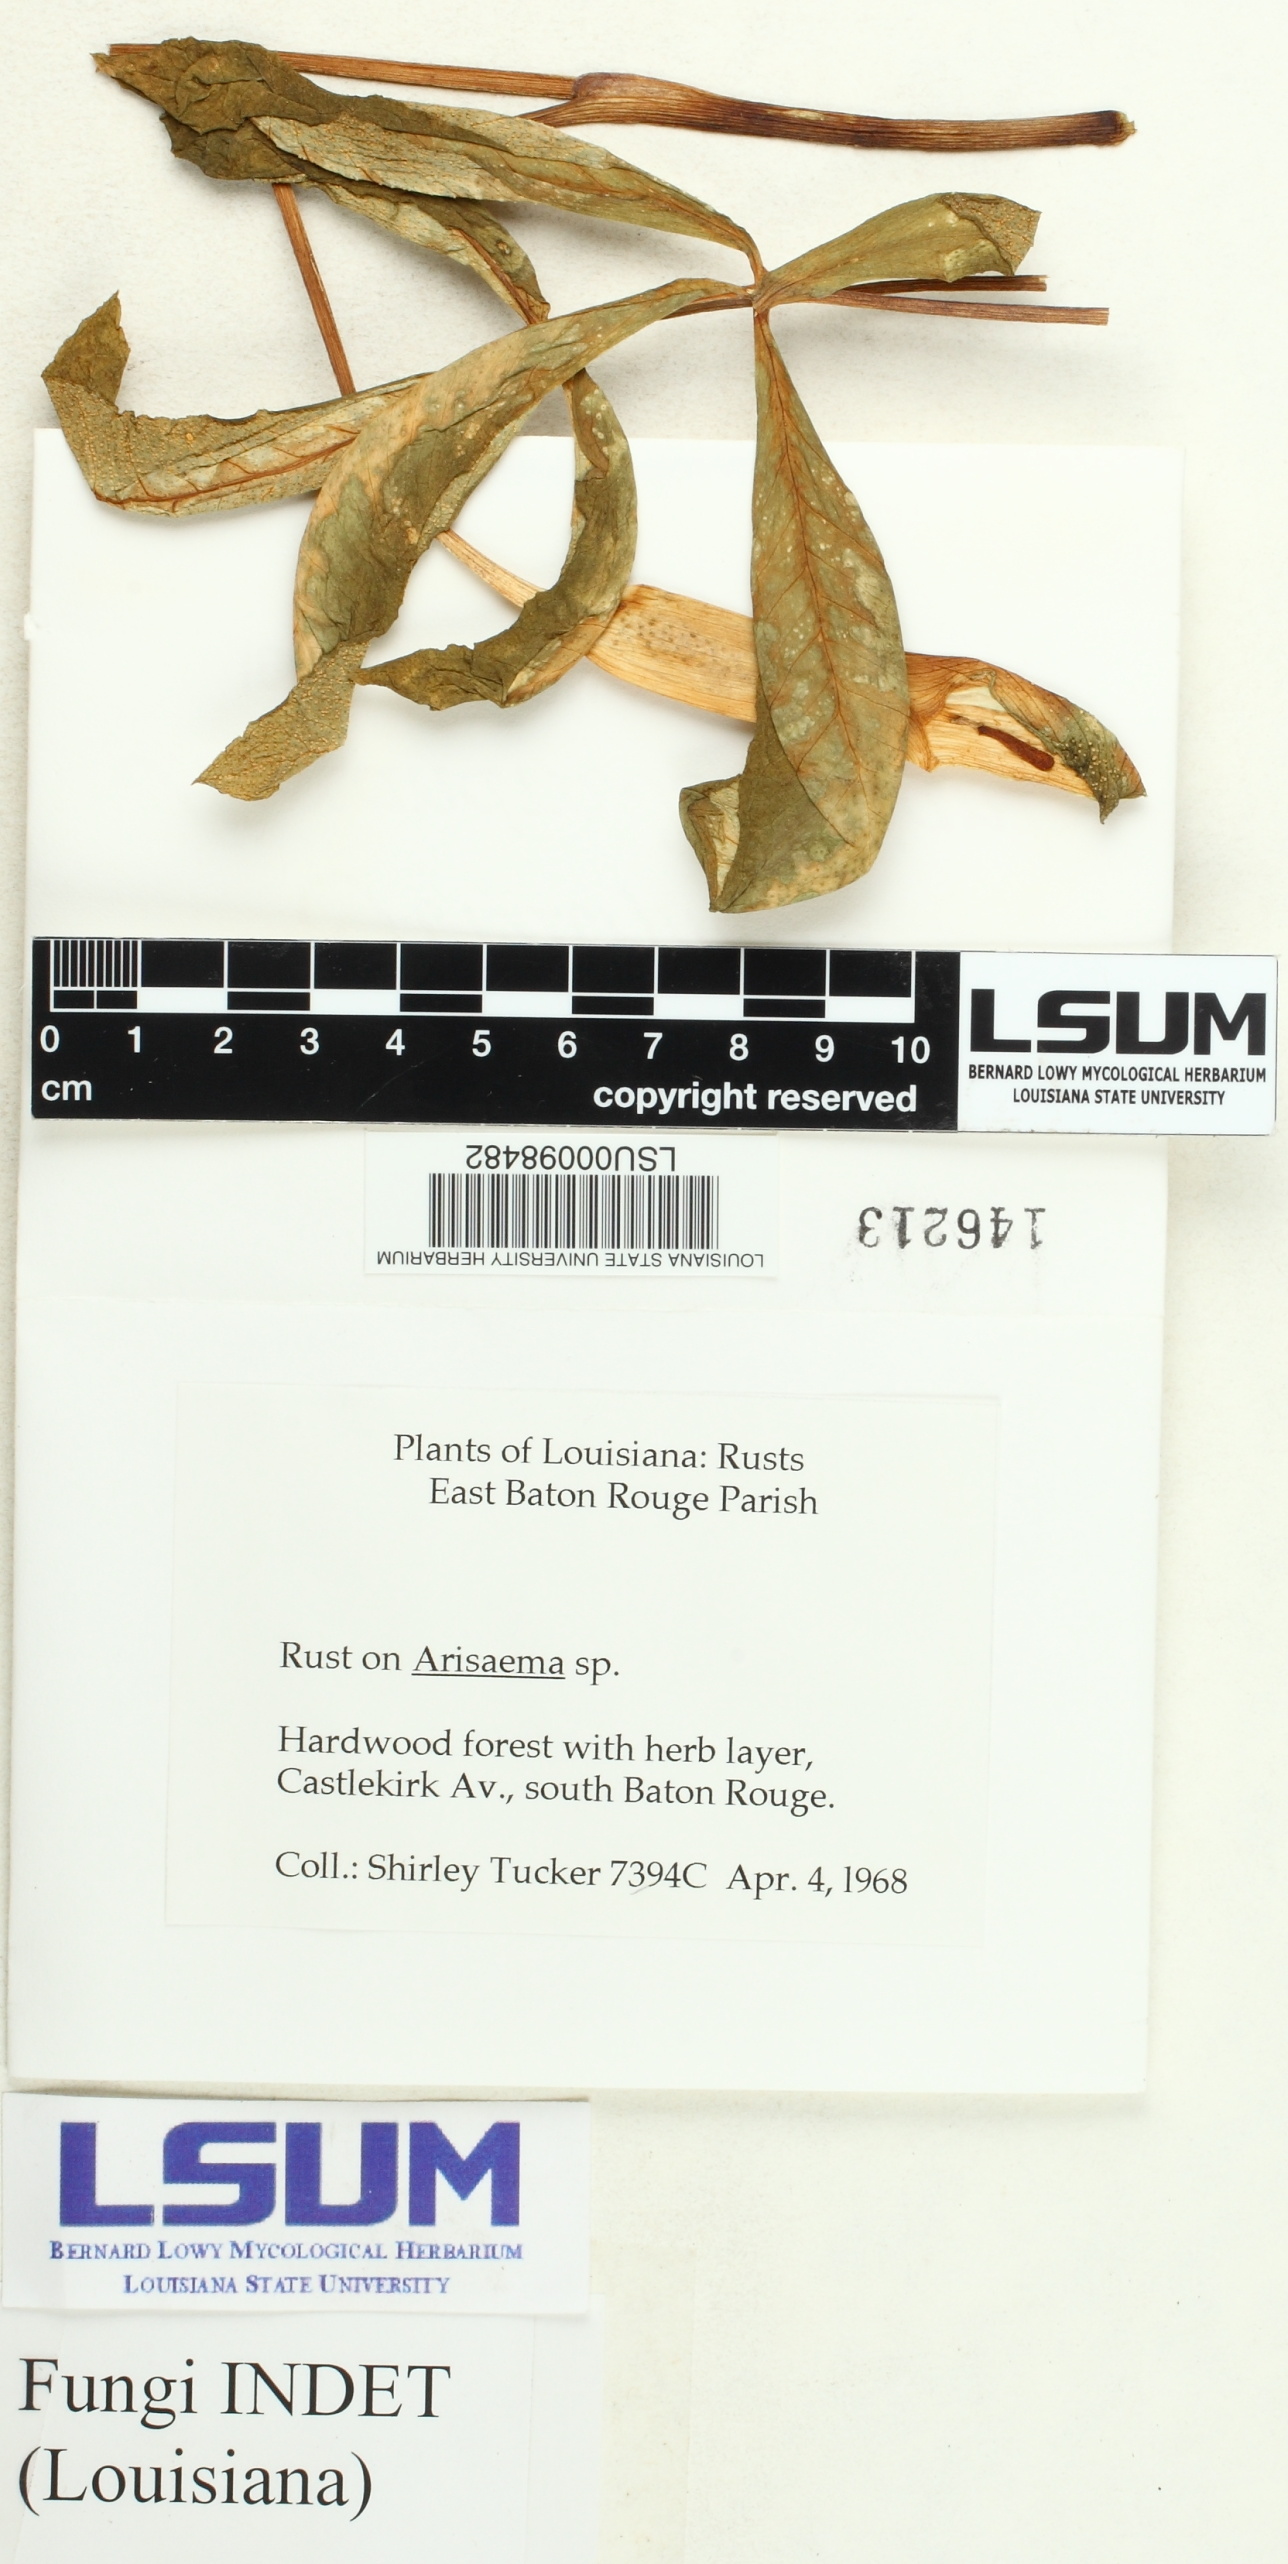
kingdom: Fungi
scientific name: Fungi
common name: Fungi
